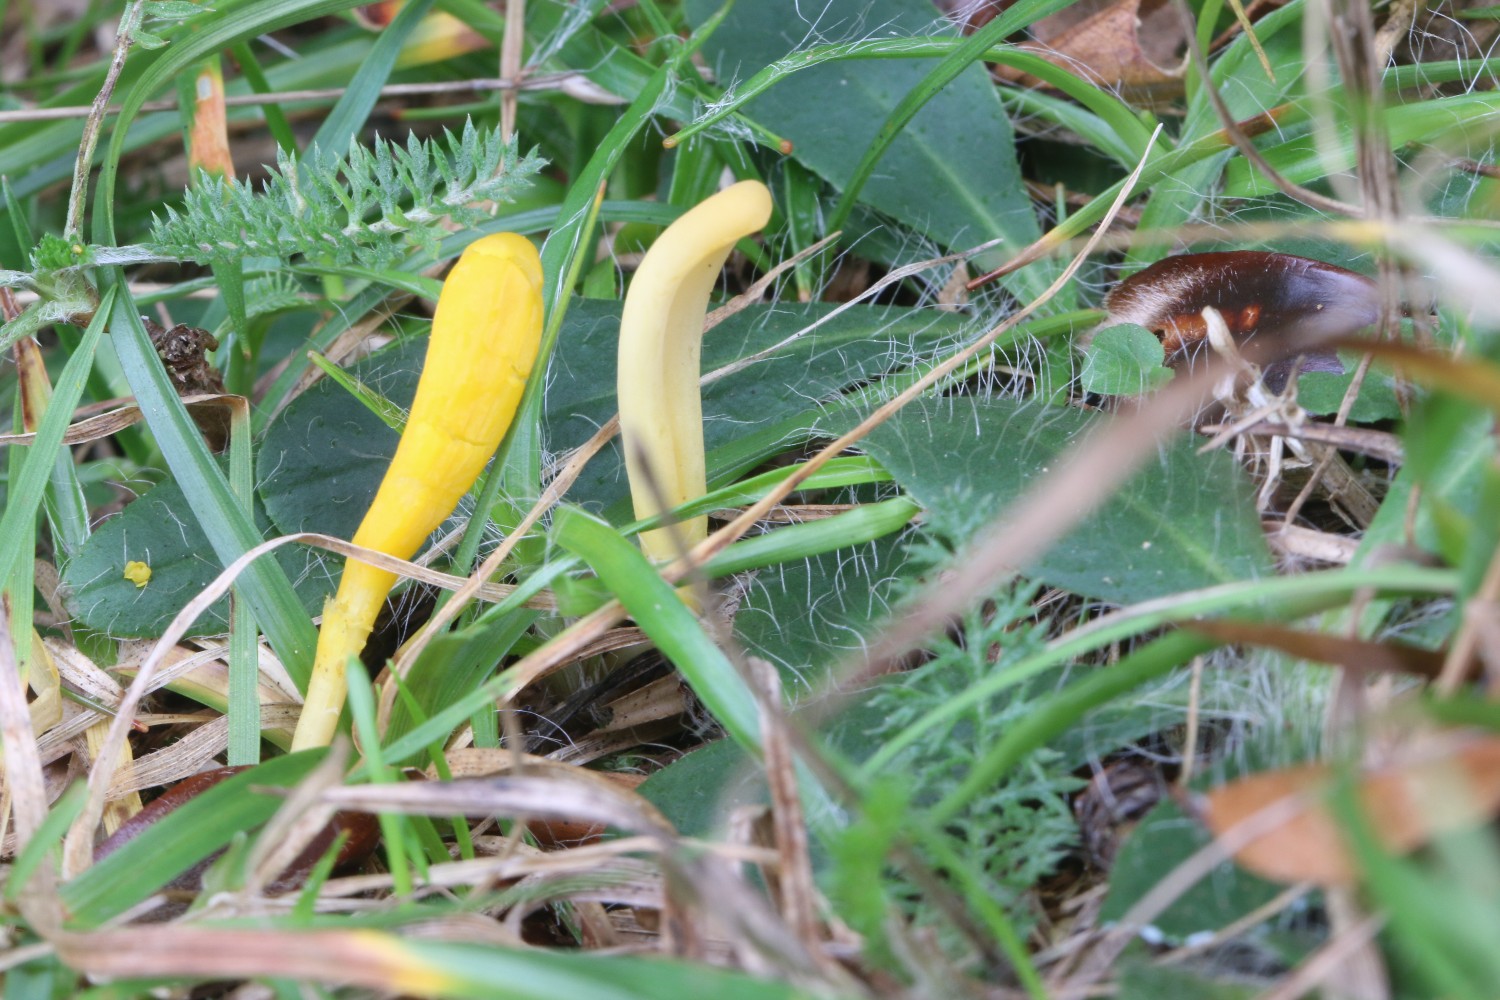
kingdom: Fungi
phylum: Basidiomycota
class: Agaricomycetes
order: Agaricales
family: Clavariaceae
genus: Clavulinopsis
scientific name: Clavulinopsis
